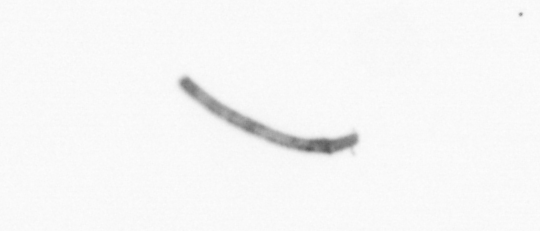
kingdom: Chromista
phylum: Ochrophyta
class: Bacillariophyceae
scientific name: Bacillariophyceae
